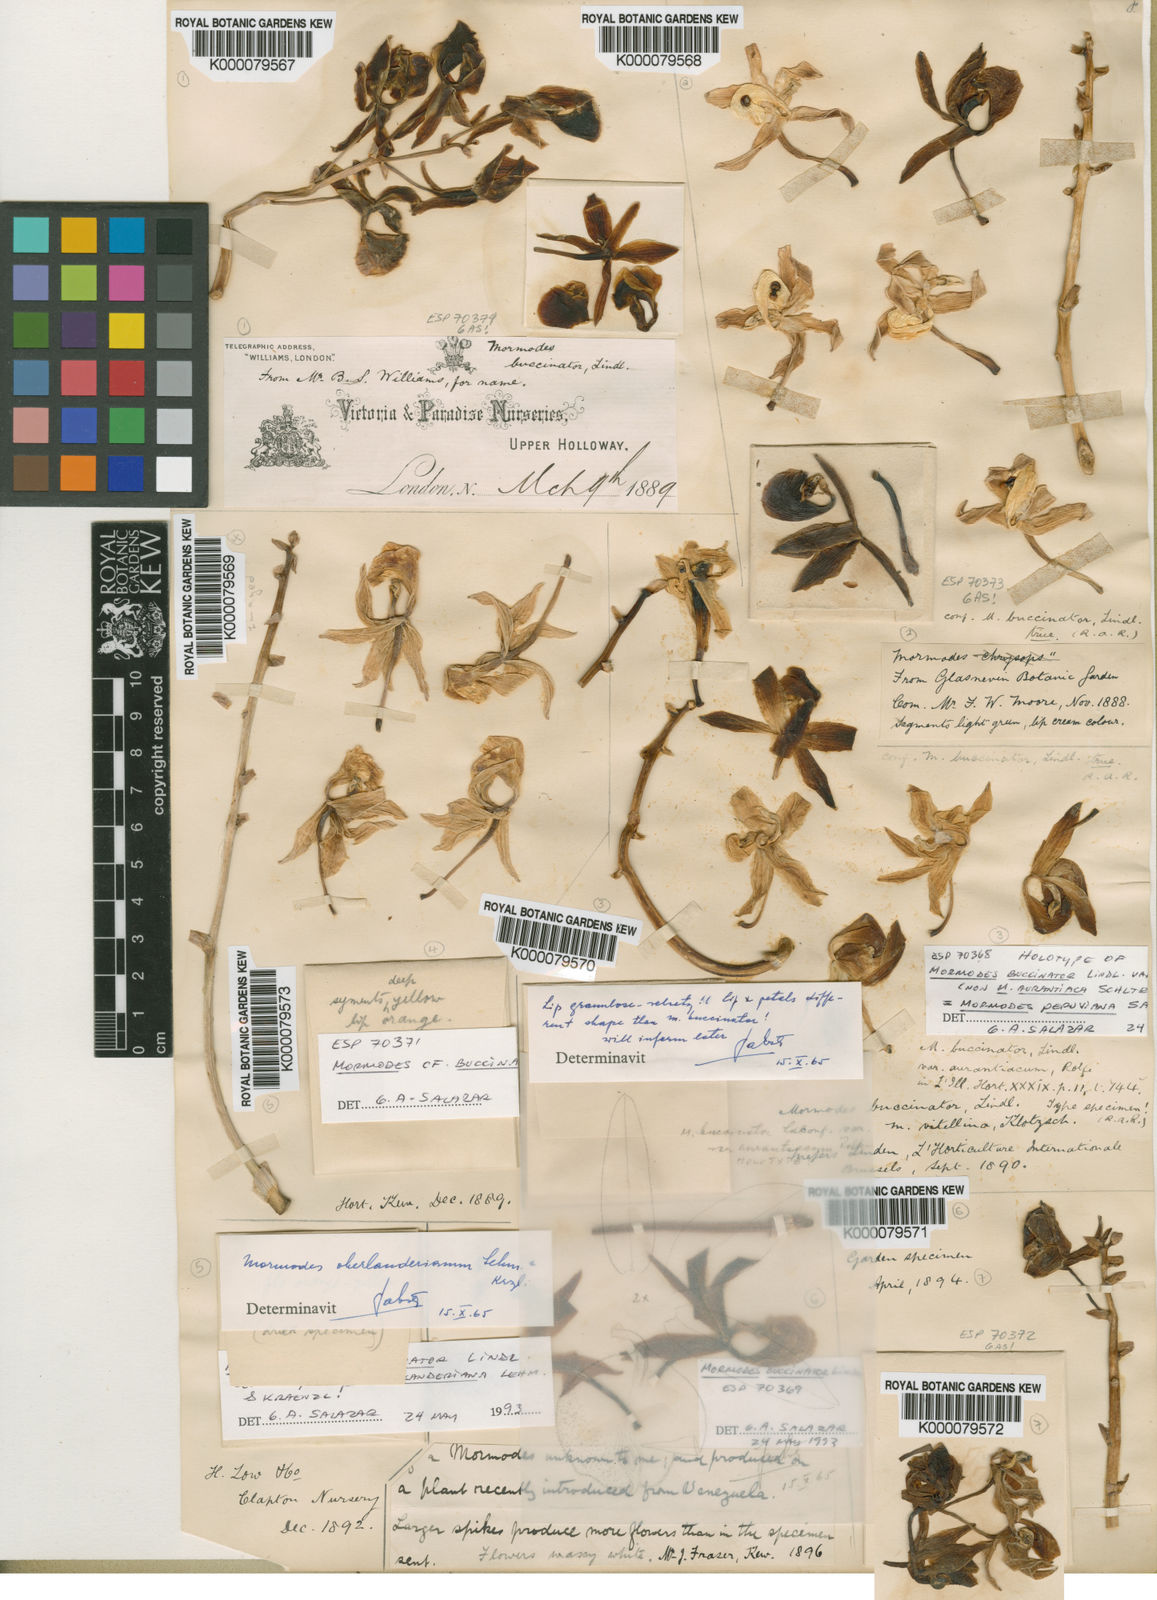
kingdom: Plantae
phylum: Tracheophyta
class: Liliopsida
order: Asparagales
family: Orchidaceae
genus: Mormodes
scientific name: Mormodes buccinator
